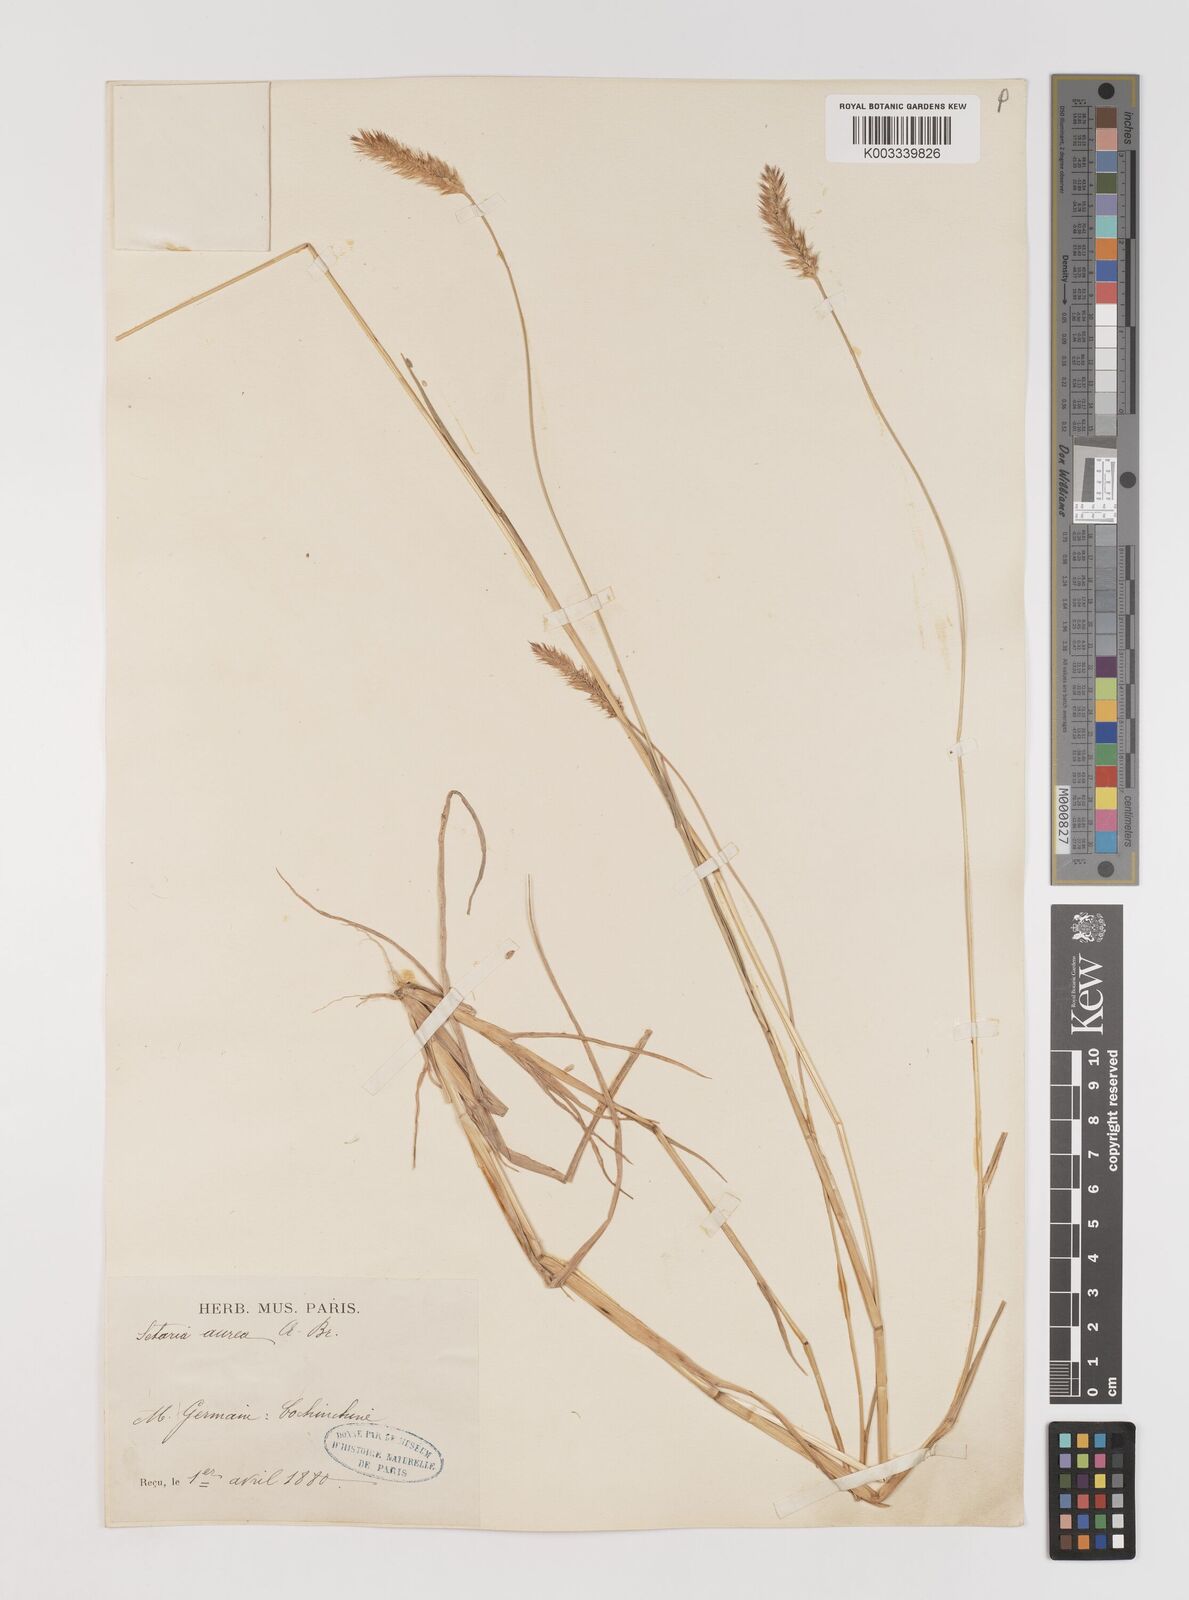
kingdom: Plantae
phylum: Tracheophyta
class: Liliopsida
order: Poales
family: Poaceae
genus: Setaria
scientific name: Setaria pumila
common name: Yellow bristle-grass
